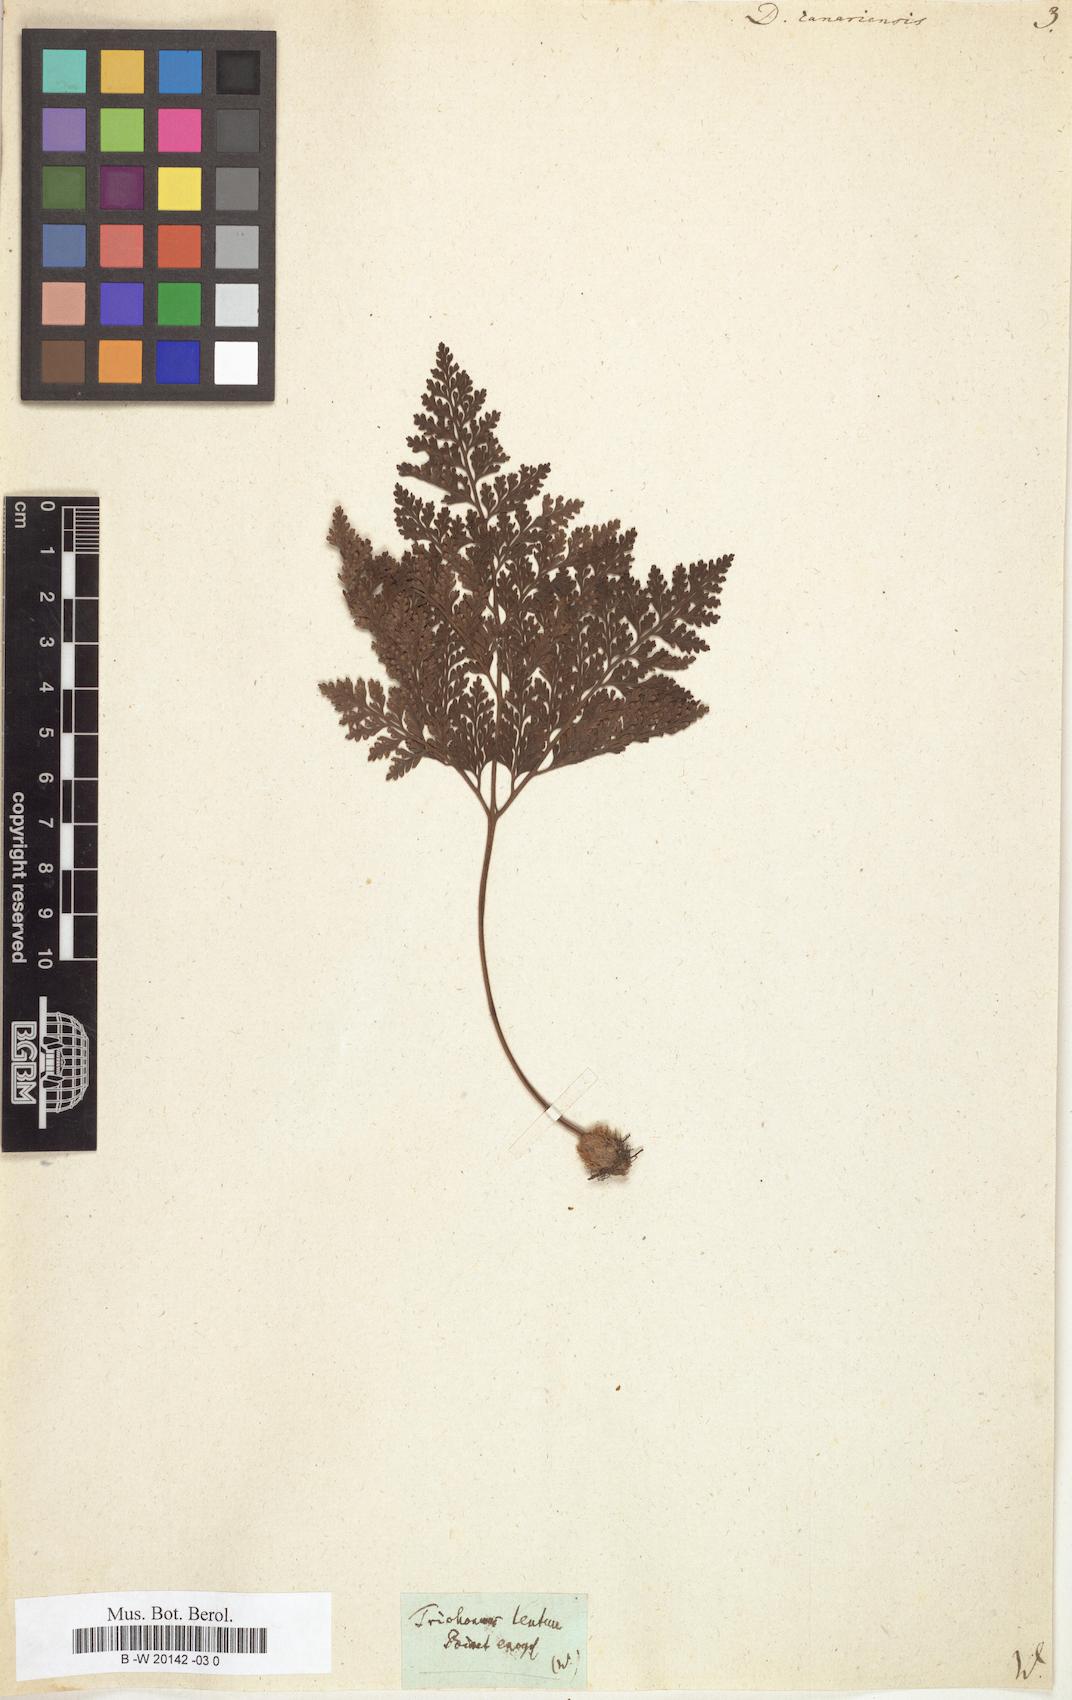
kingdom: Plantae
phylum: Tracheophyta
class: Polypodiopsida
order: Polypodiales
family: Davalliaceae
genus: Davallia
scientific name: Davallia canariensis
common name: Hare's-foot fern
